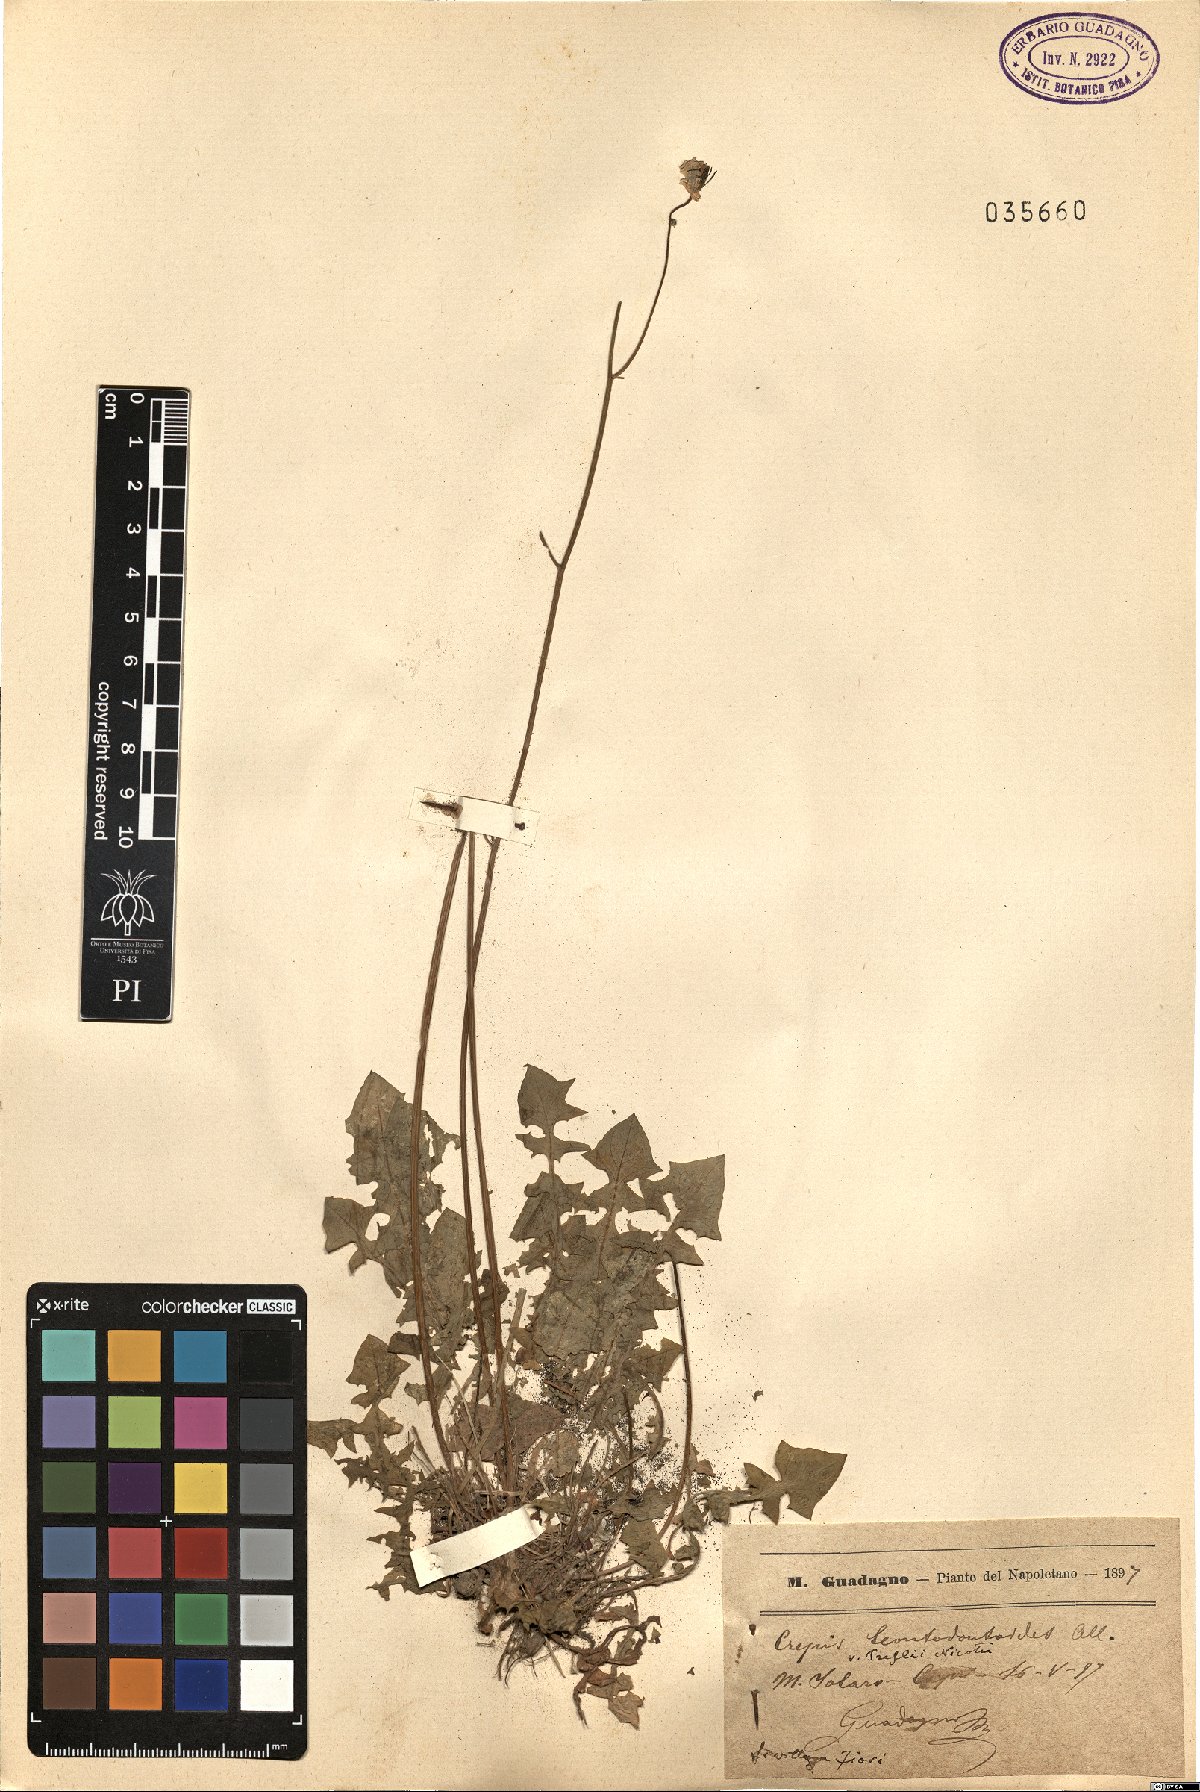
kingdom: Plantae
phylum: Tracheophyta
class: Magnoliopsida
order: Asterales
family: Asteraceae
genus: Crepis
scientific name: Crepis leontodontoides
